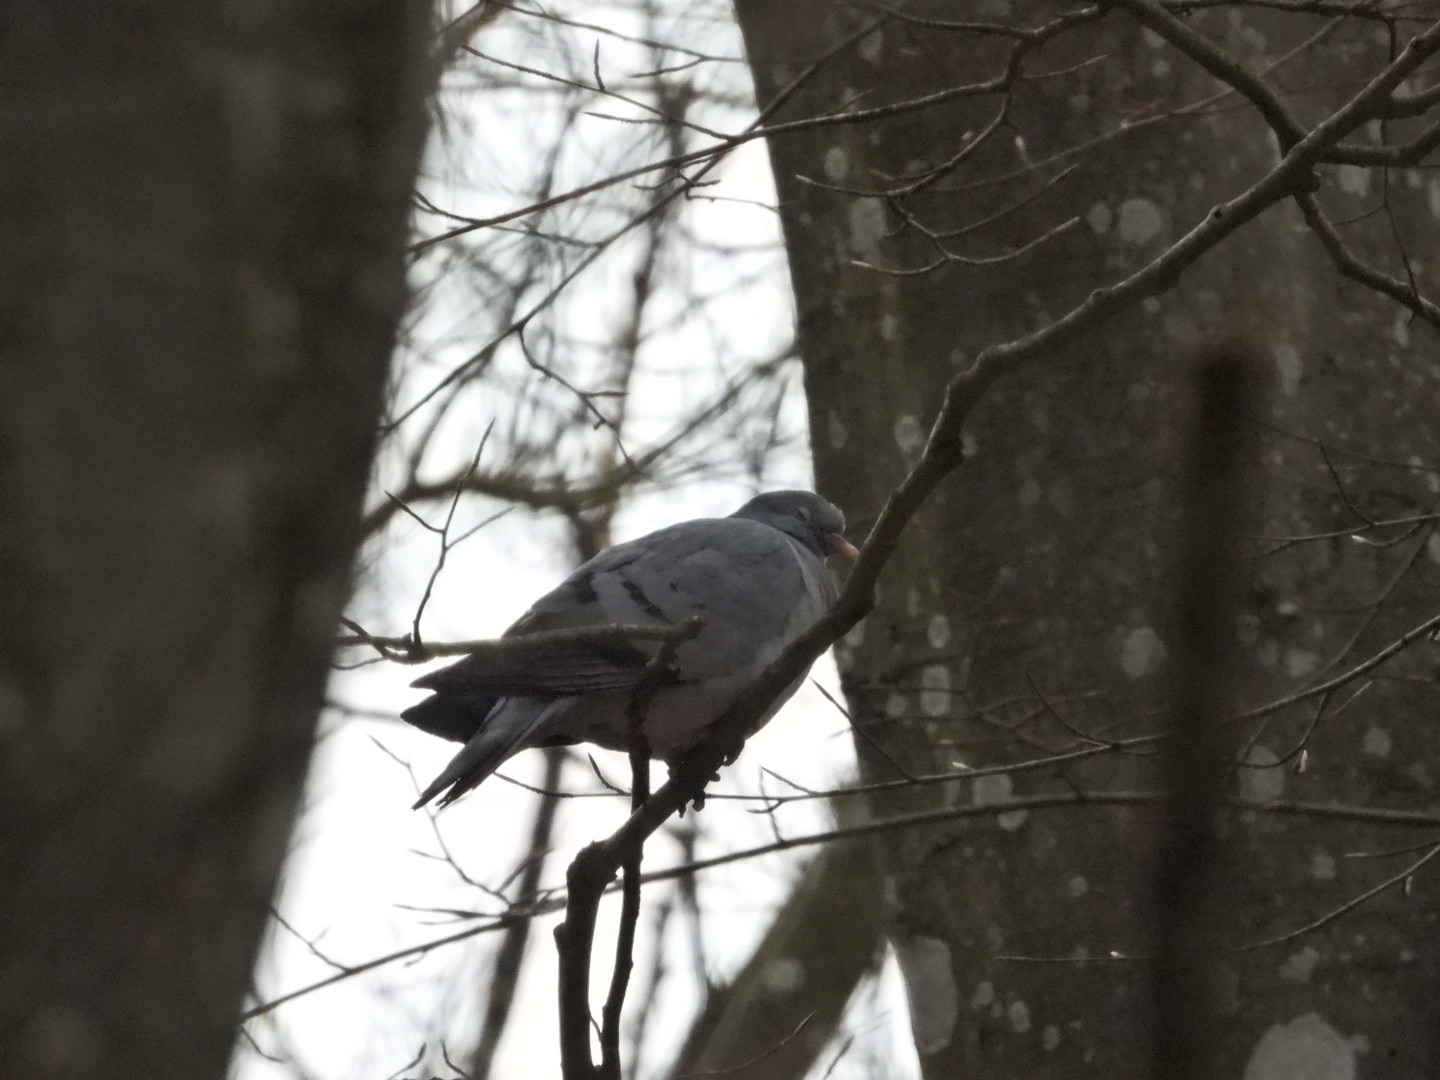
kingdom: Animalia
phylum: Chordata
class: Aves
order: Columbiformes
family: Columbidae
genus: Columba
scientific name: Columba oenas
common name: Huldue
